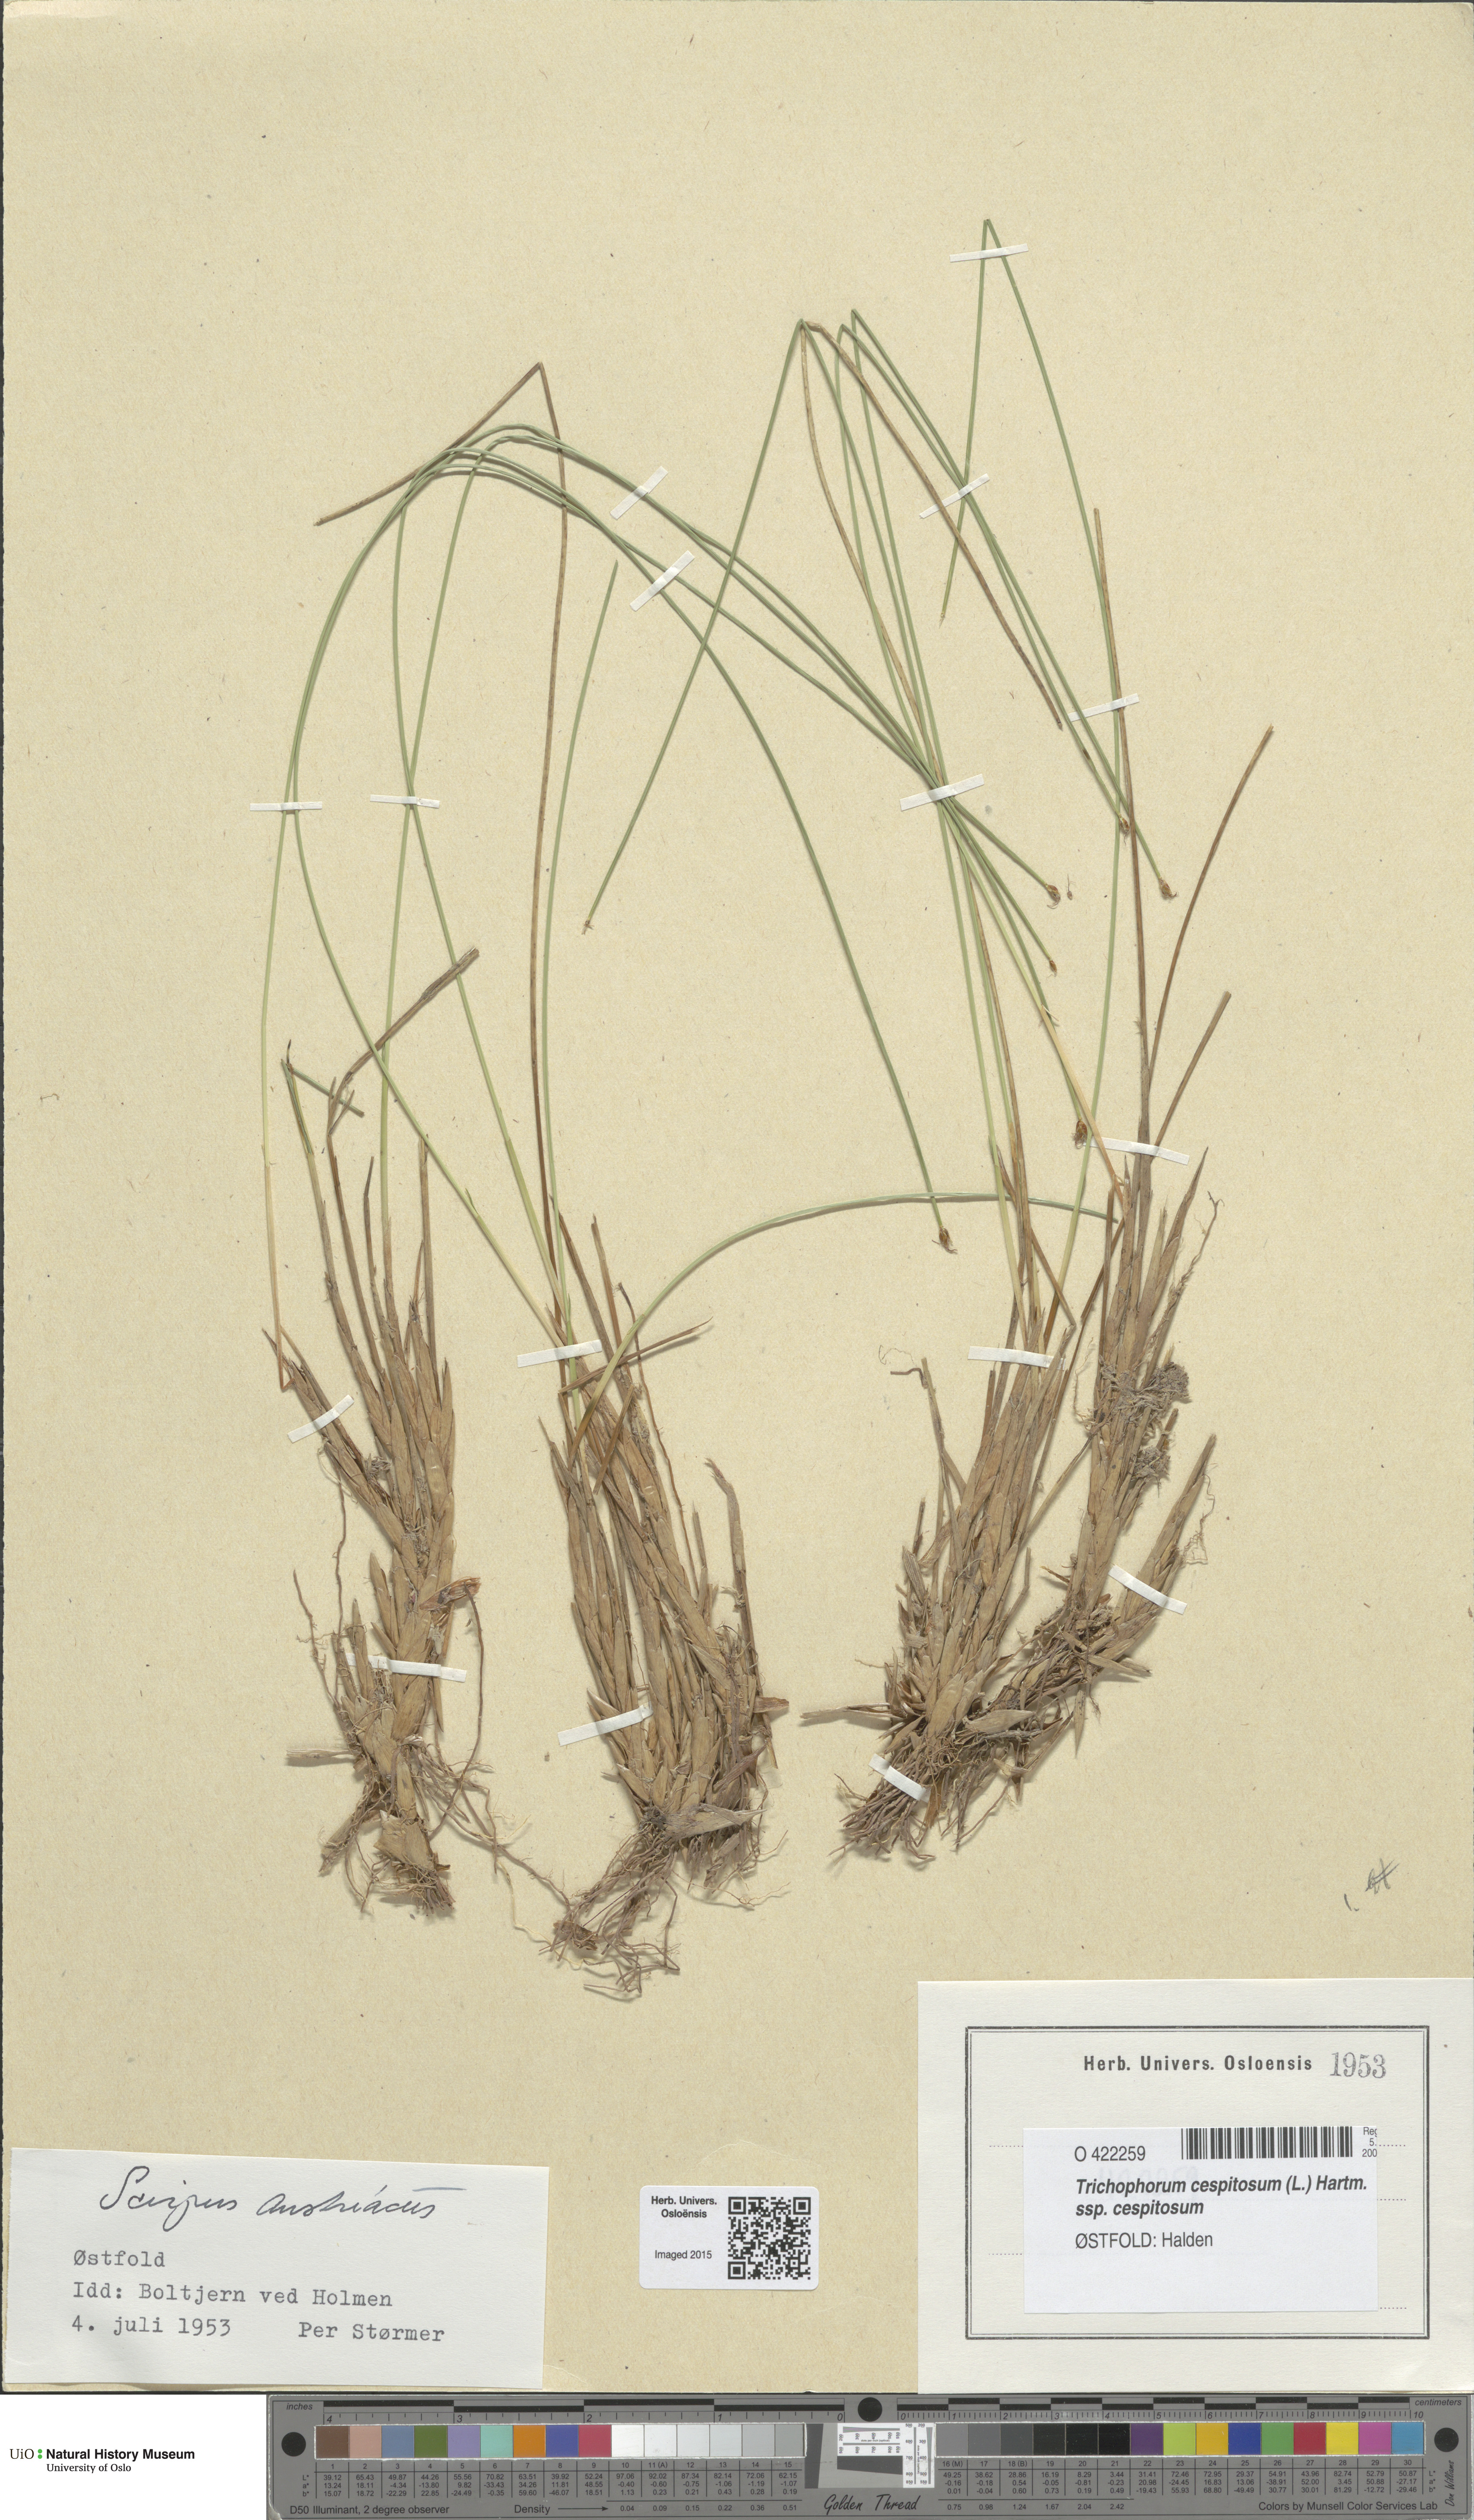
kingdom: Plantae
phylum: Tracheophyta
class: Liliopsida
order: Poales
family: Cyperaceae
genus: Trichophorum
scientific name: Trichophorum cespitosum
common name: Cespitose bulrush
